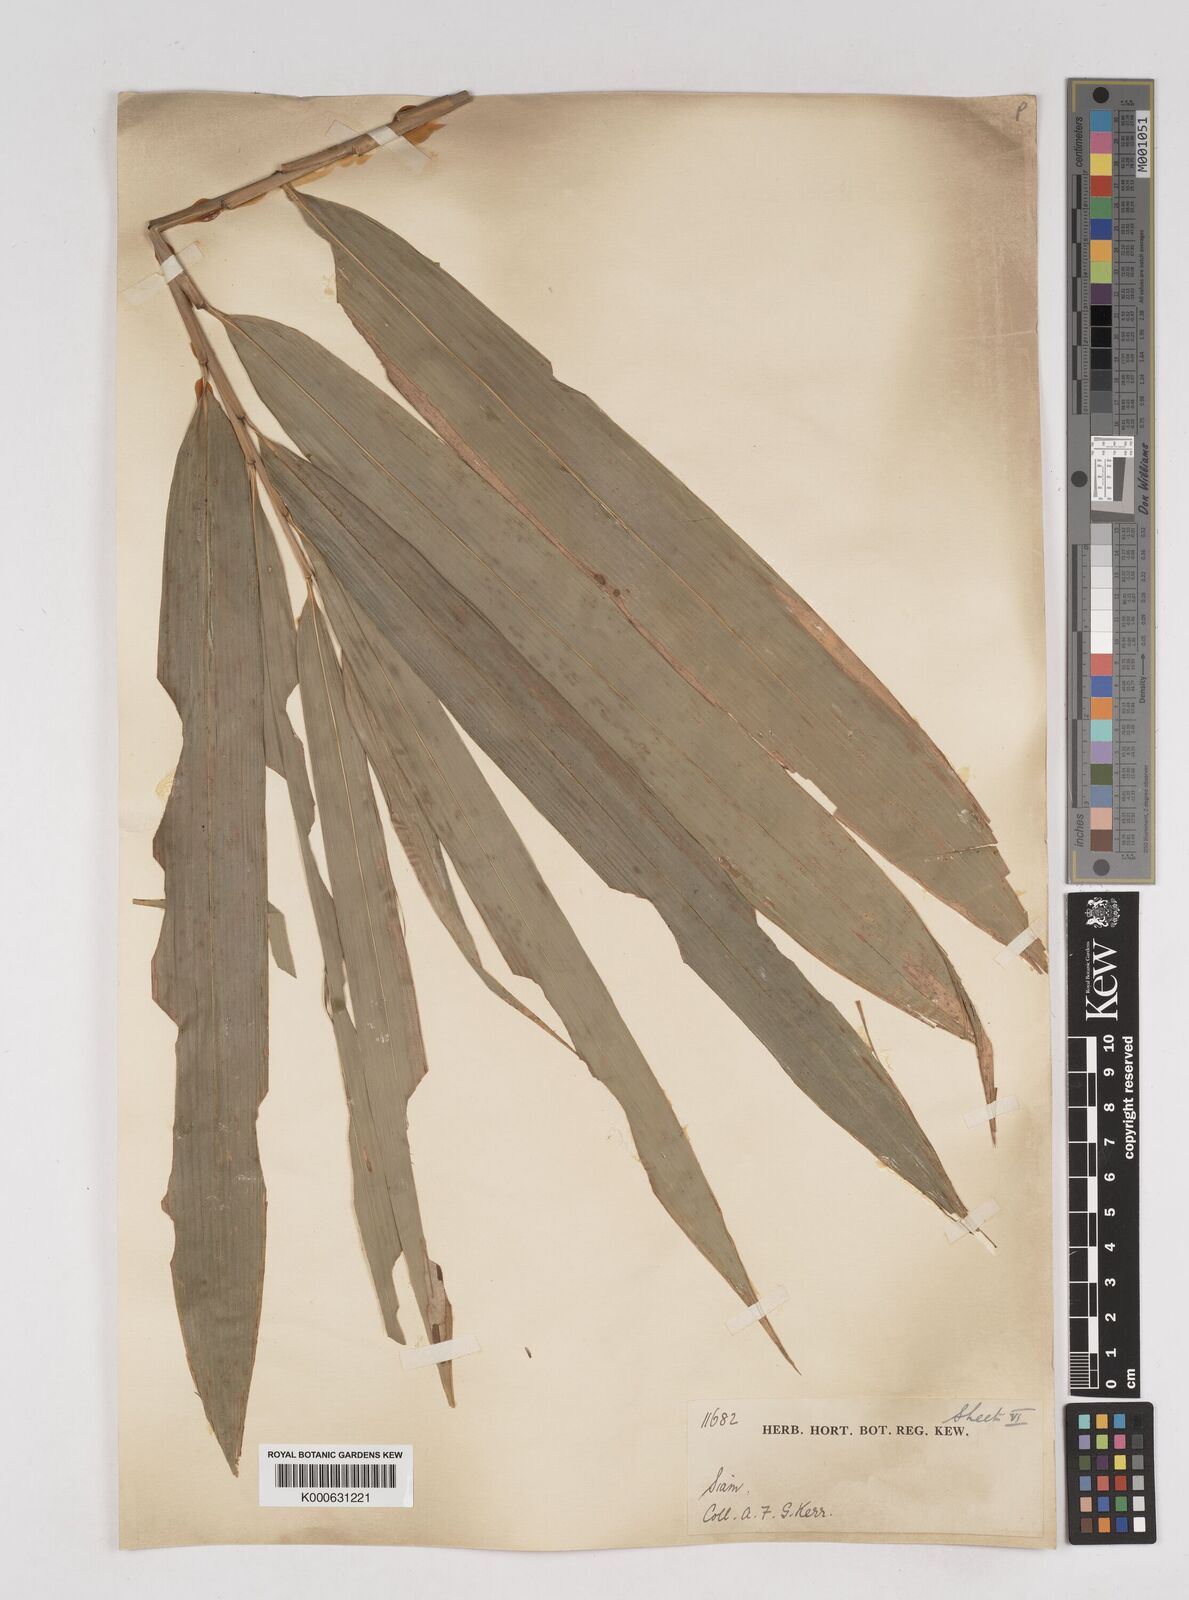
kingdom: Plantae
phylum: Tracheophyta
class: Liliopsida
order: Poales
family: Poaceae
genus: Gigantochloa
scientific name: Gigantochloa
